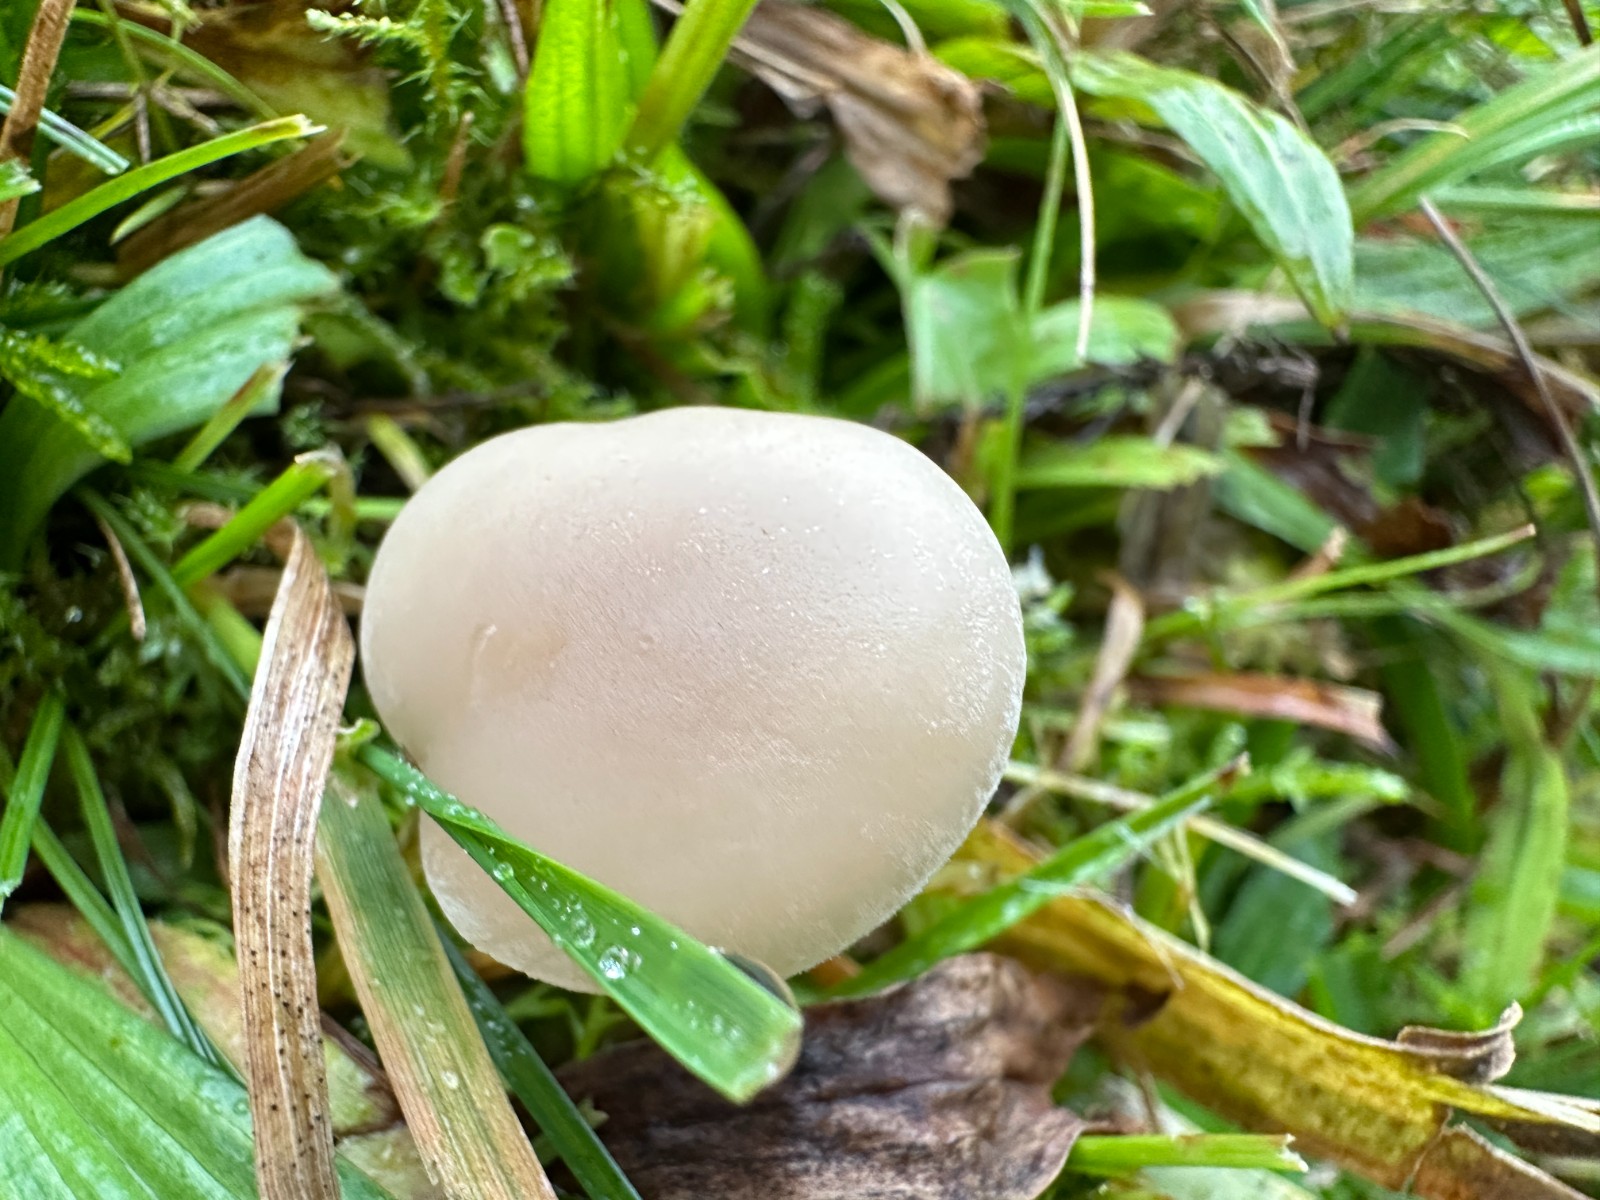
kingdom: Fungi
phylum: Basidiomycota
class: Agaricomycetes
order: Agaricales
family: Tricholomataceae
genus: Clitocybe
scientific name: Clitocybe fragrans
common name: vellugtende tragthat
